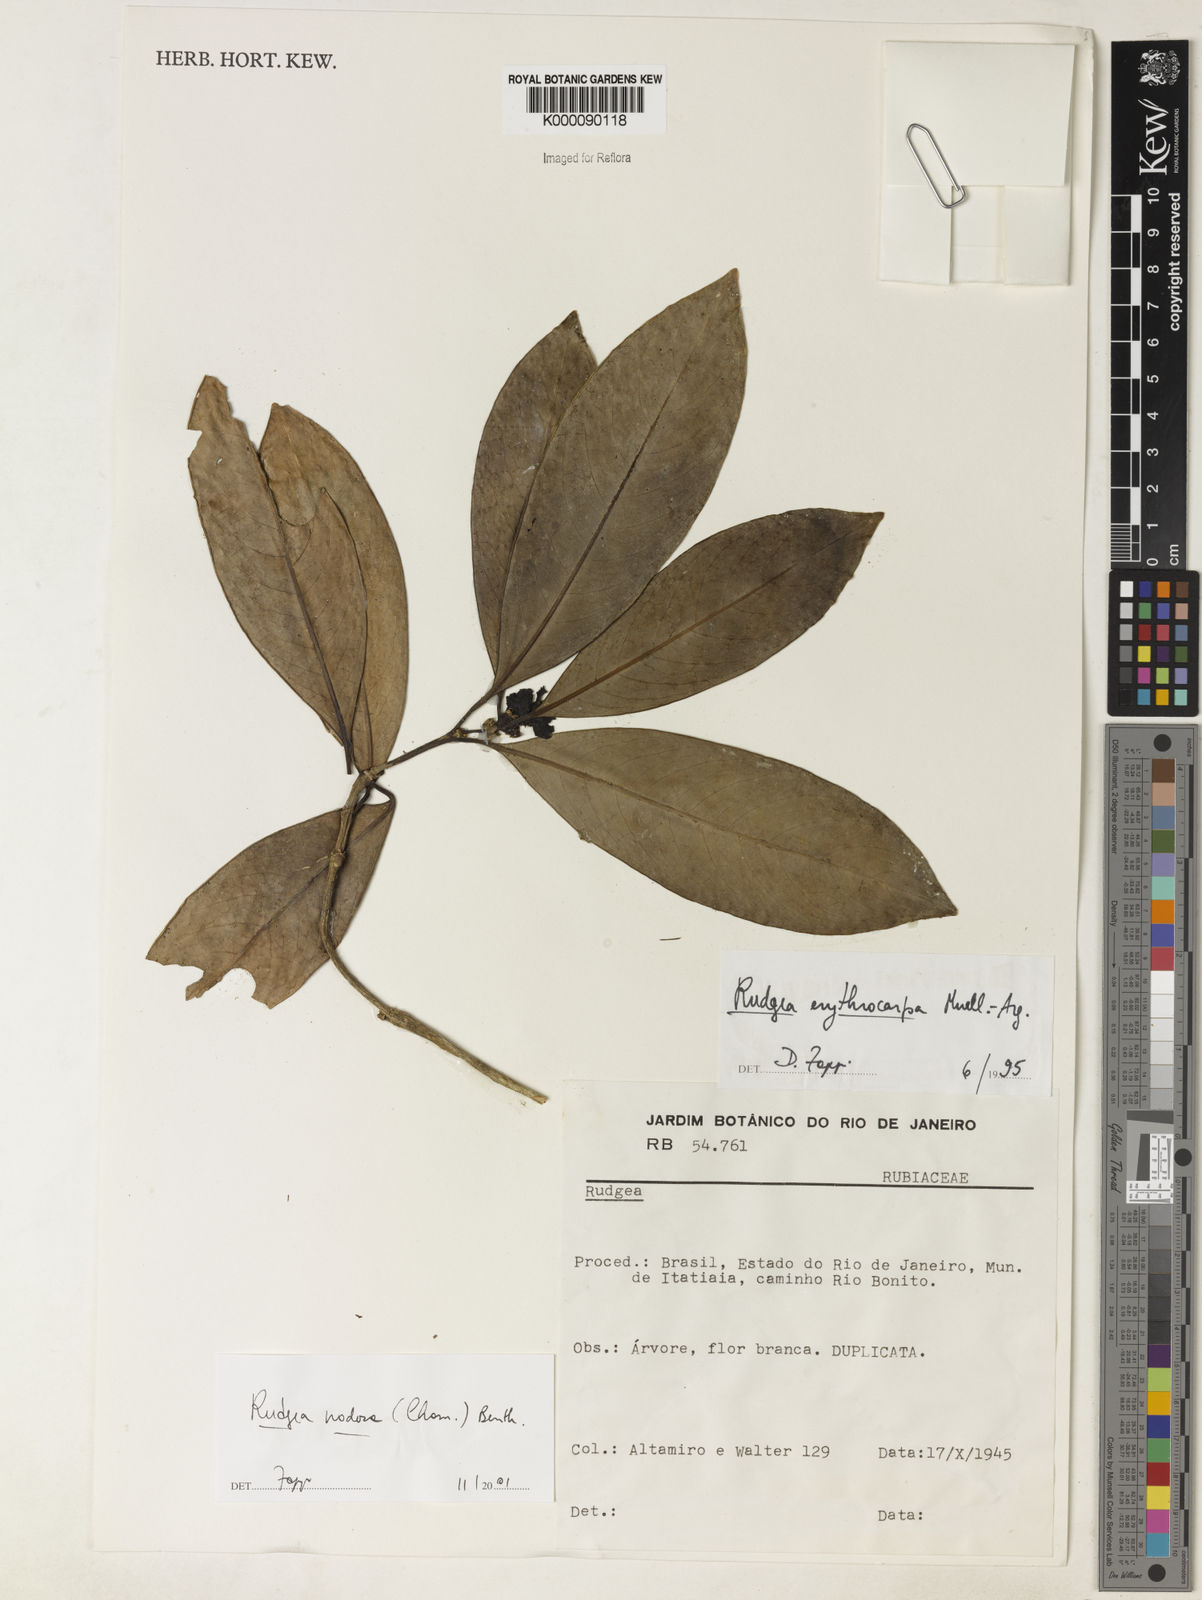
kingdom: Plantae
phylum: Tracheophyta
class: Magnoliopsida
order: Gentianales
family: Rubiaceae
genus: Rudgea
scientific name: Rudgea nodosa
